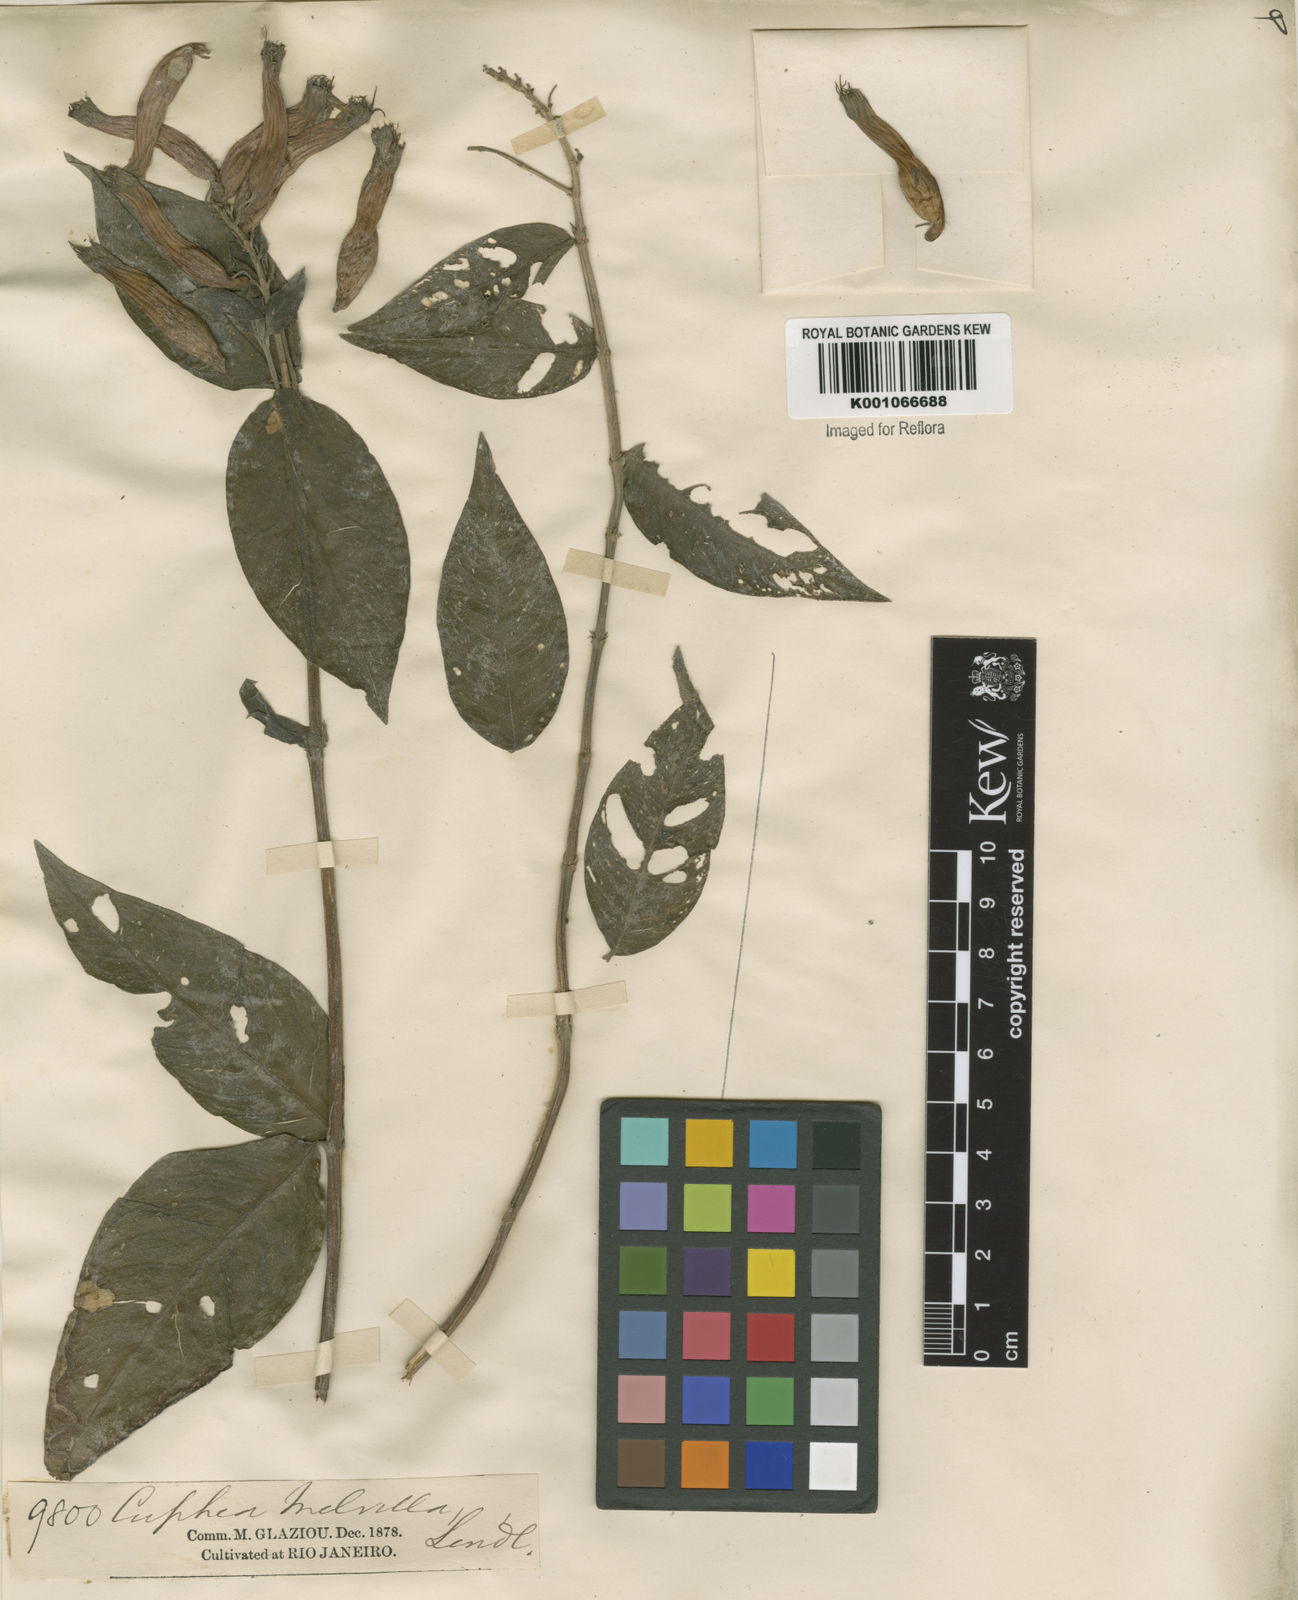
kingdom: Plantae
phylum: Tracheophyta
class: Magnoliopsida
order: Myrtales
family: Lythraceae
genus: Cuphea
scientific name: Cuphea melvilla
